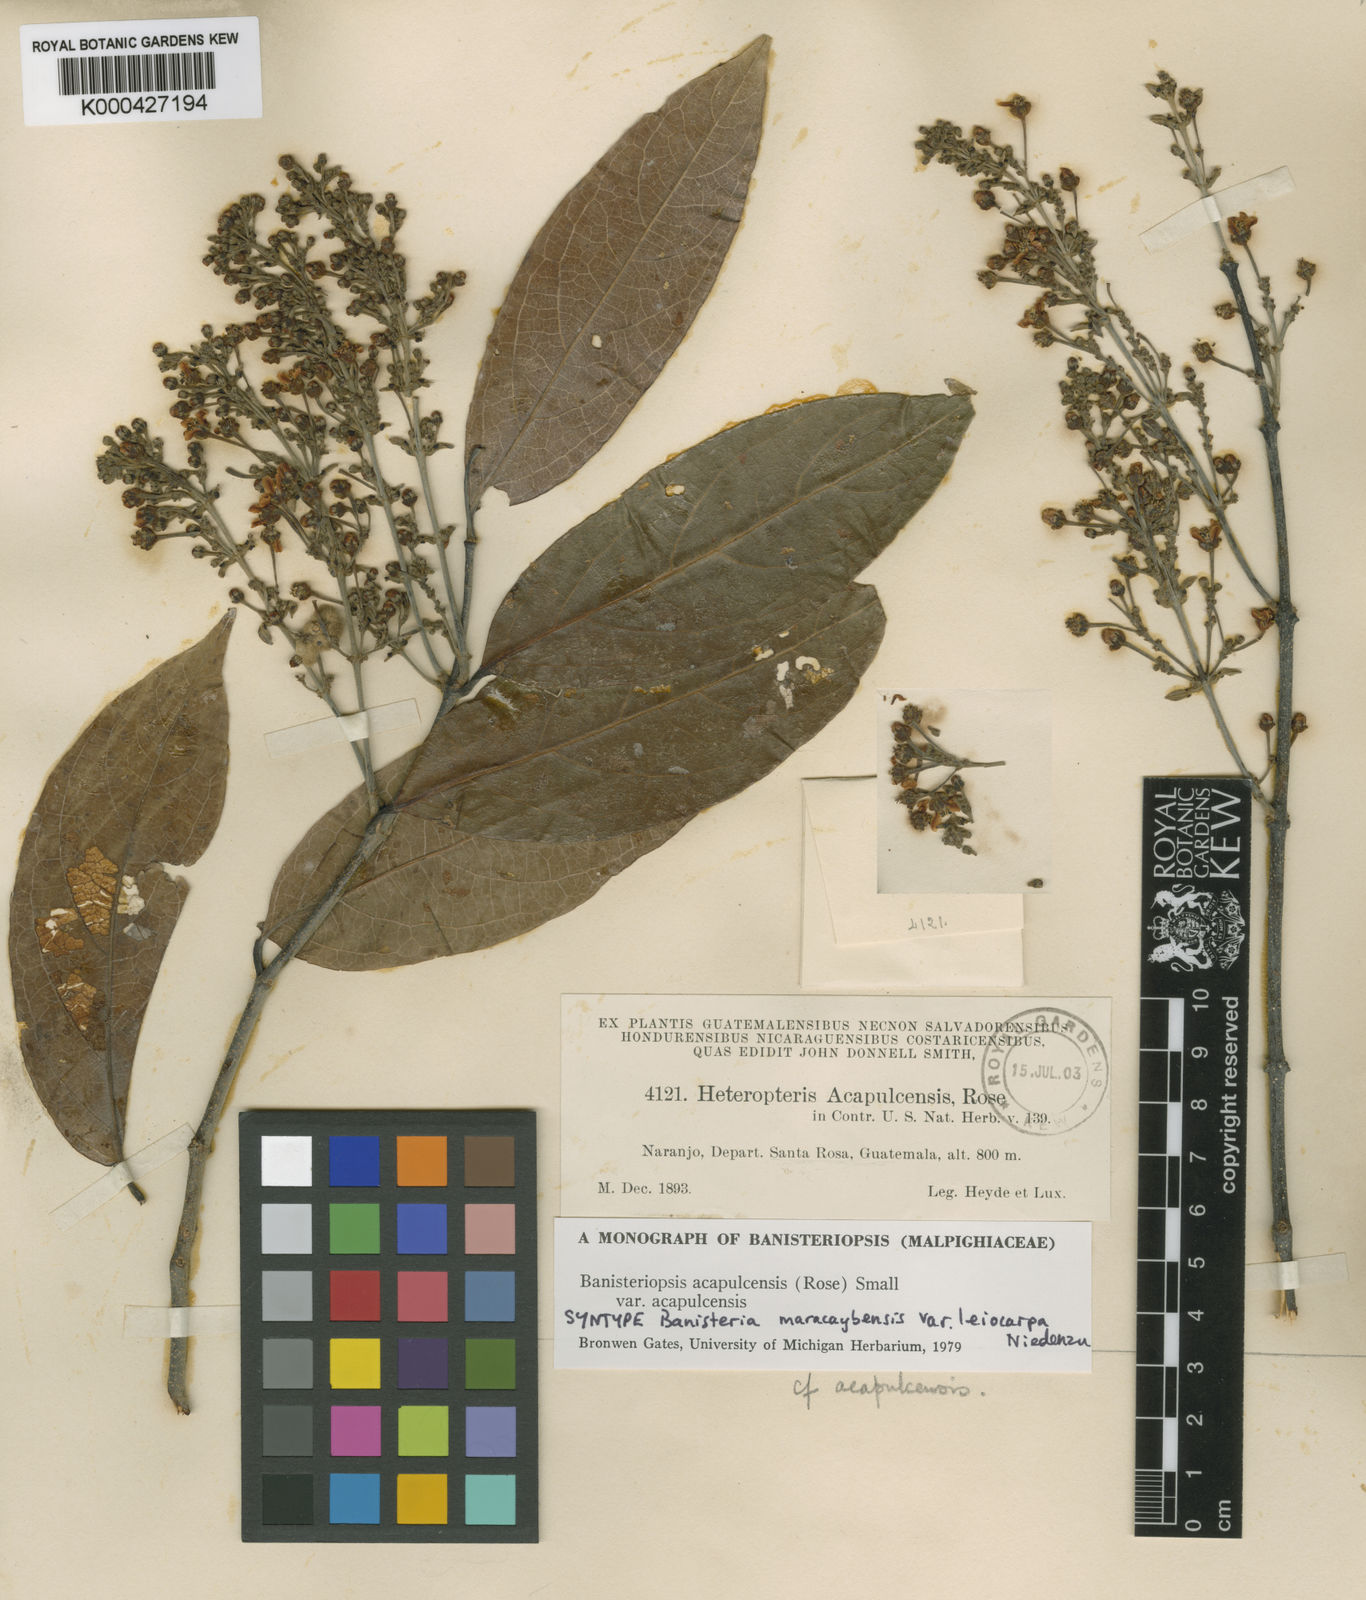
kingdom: Plantae
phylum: Tracheophyta
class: Magnoliopsida
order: Malpighiales
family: Malpighiaceae
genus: Bronwenia
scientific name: Bronwenia acapulcensis
